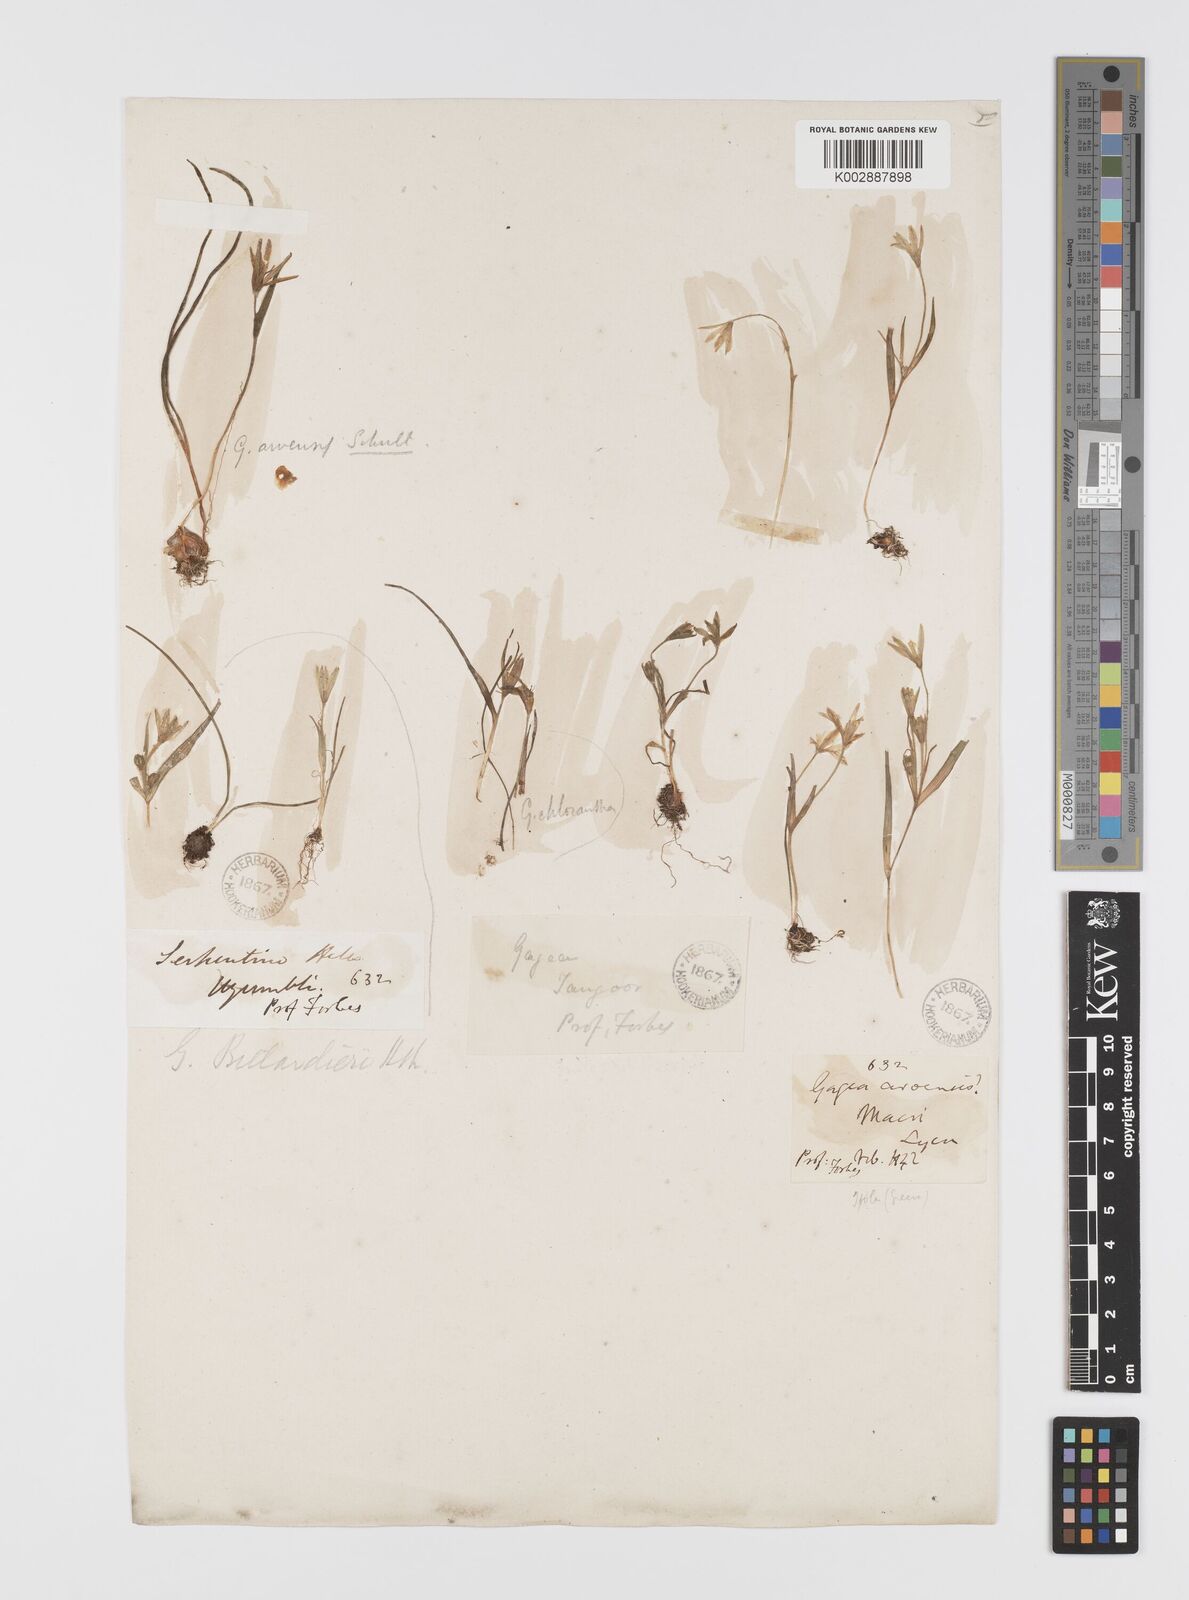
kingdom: Plantae
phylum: Tracheophyta
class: Liliopsida
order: Liliales
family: Liliaceae
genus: Gagea
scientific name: Gagea peduncularis
